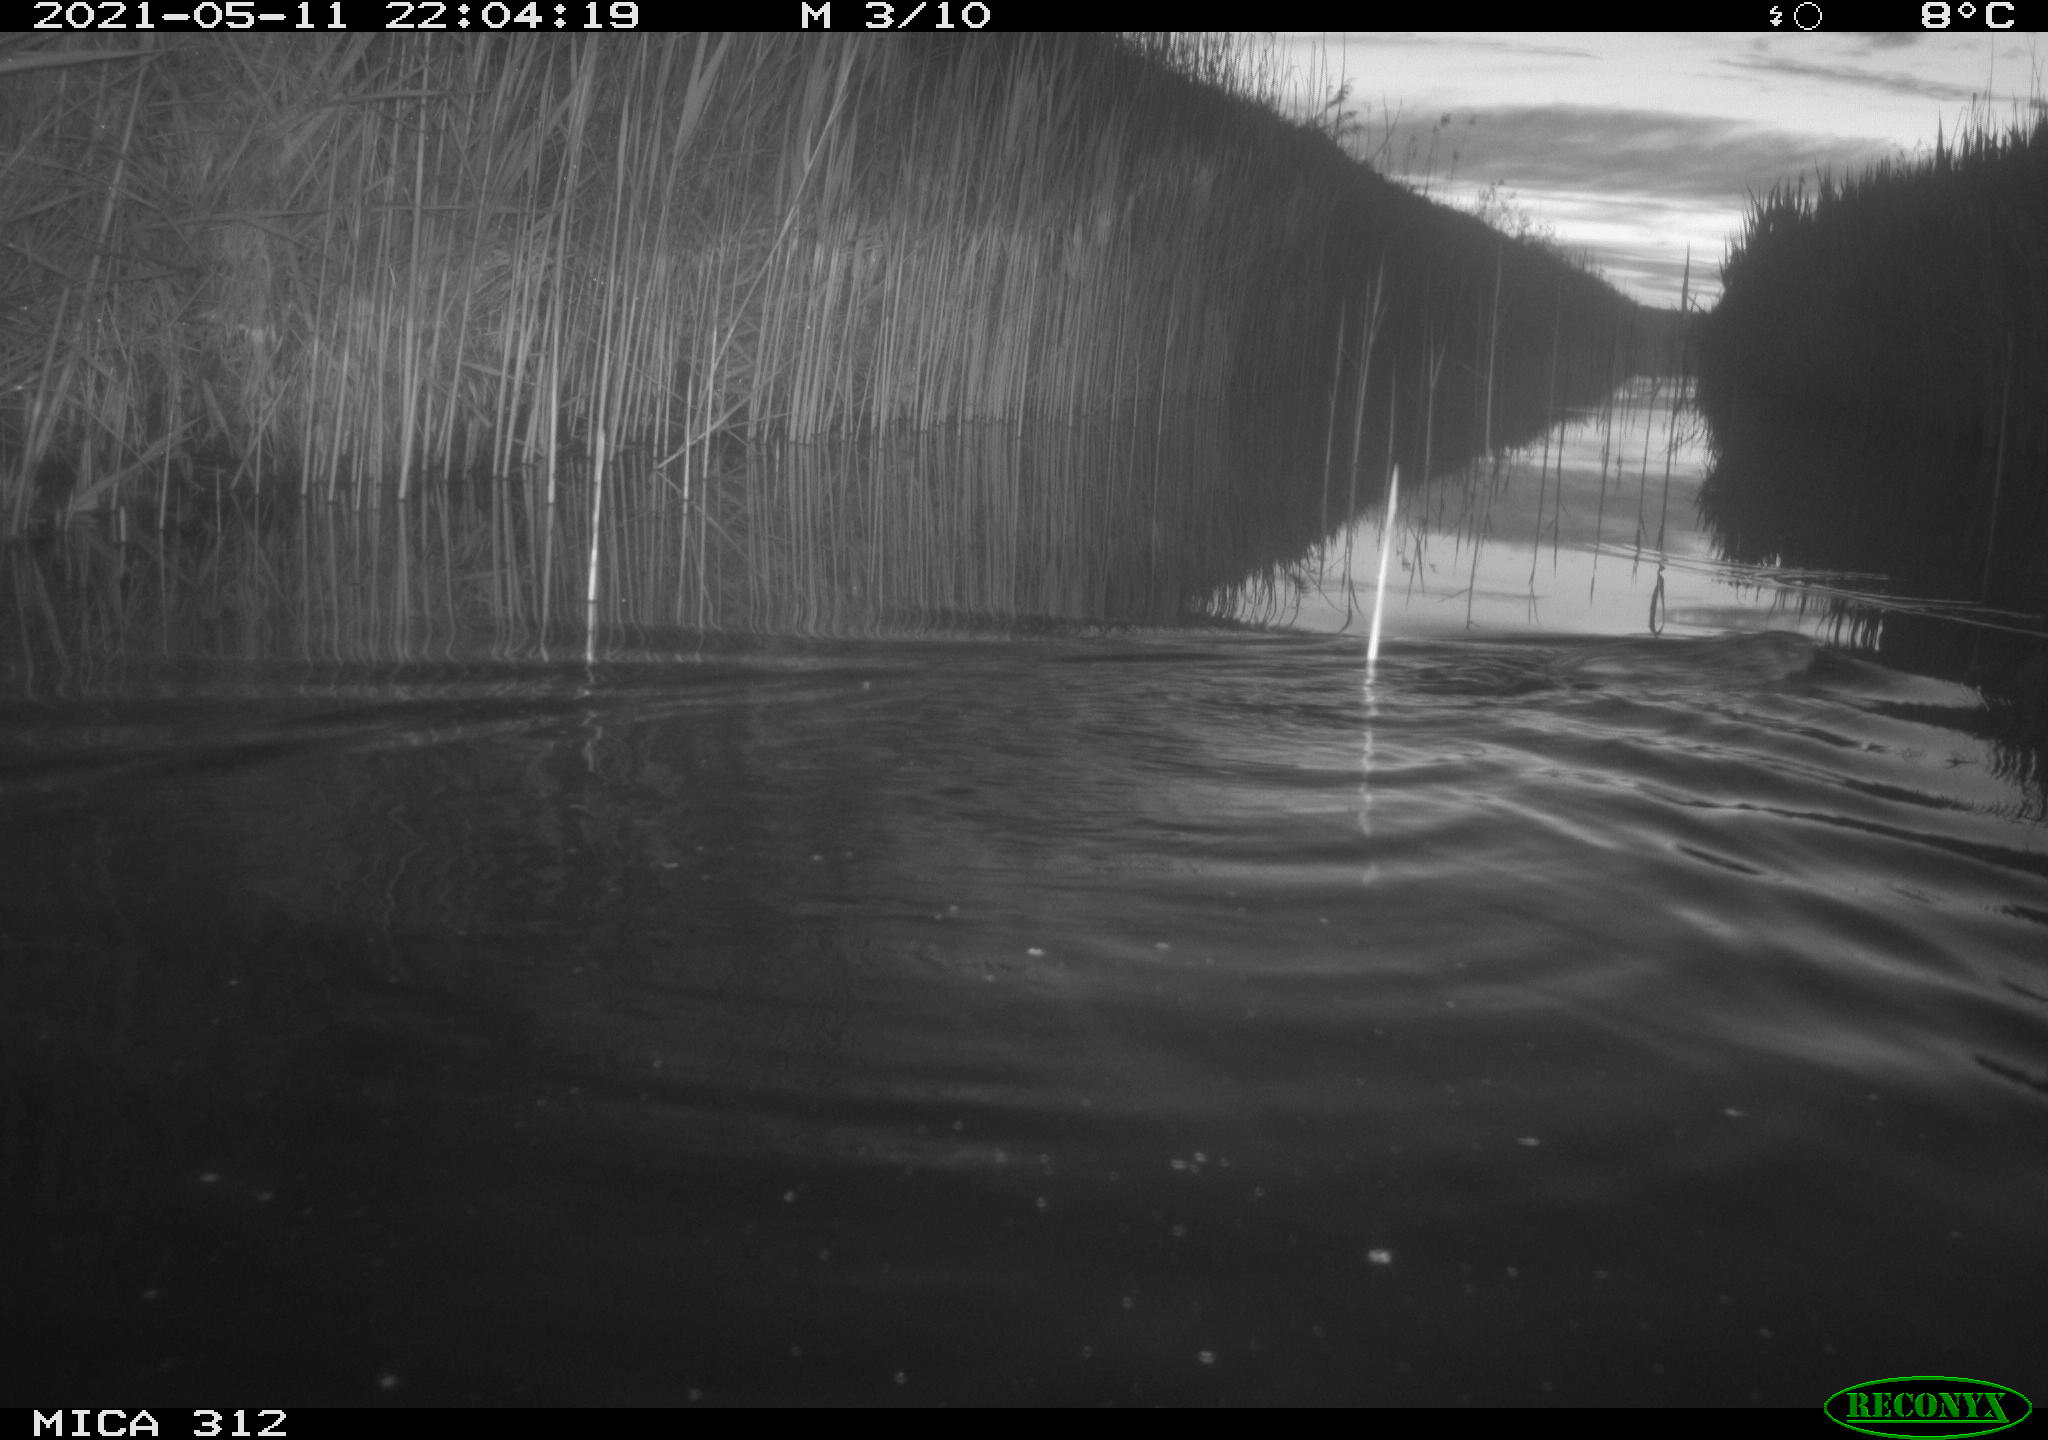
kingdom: Animalia
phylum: Chordata
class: Mammalia
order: Rodentia
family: Cricetidae
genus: Ondatra
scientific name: Ondatra zibethicus
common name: Muskrat
